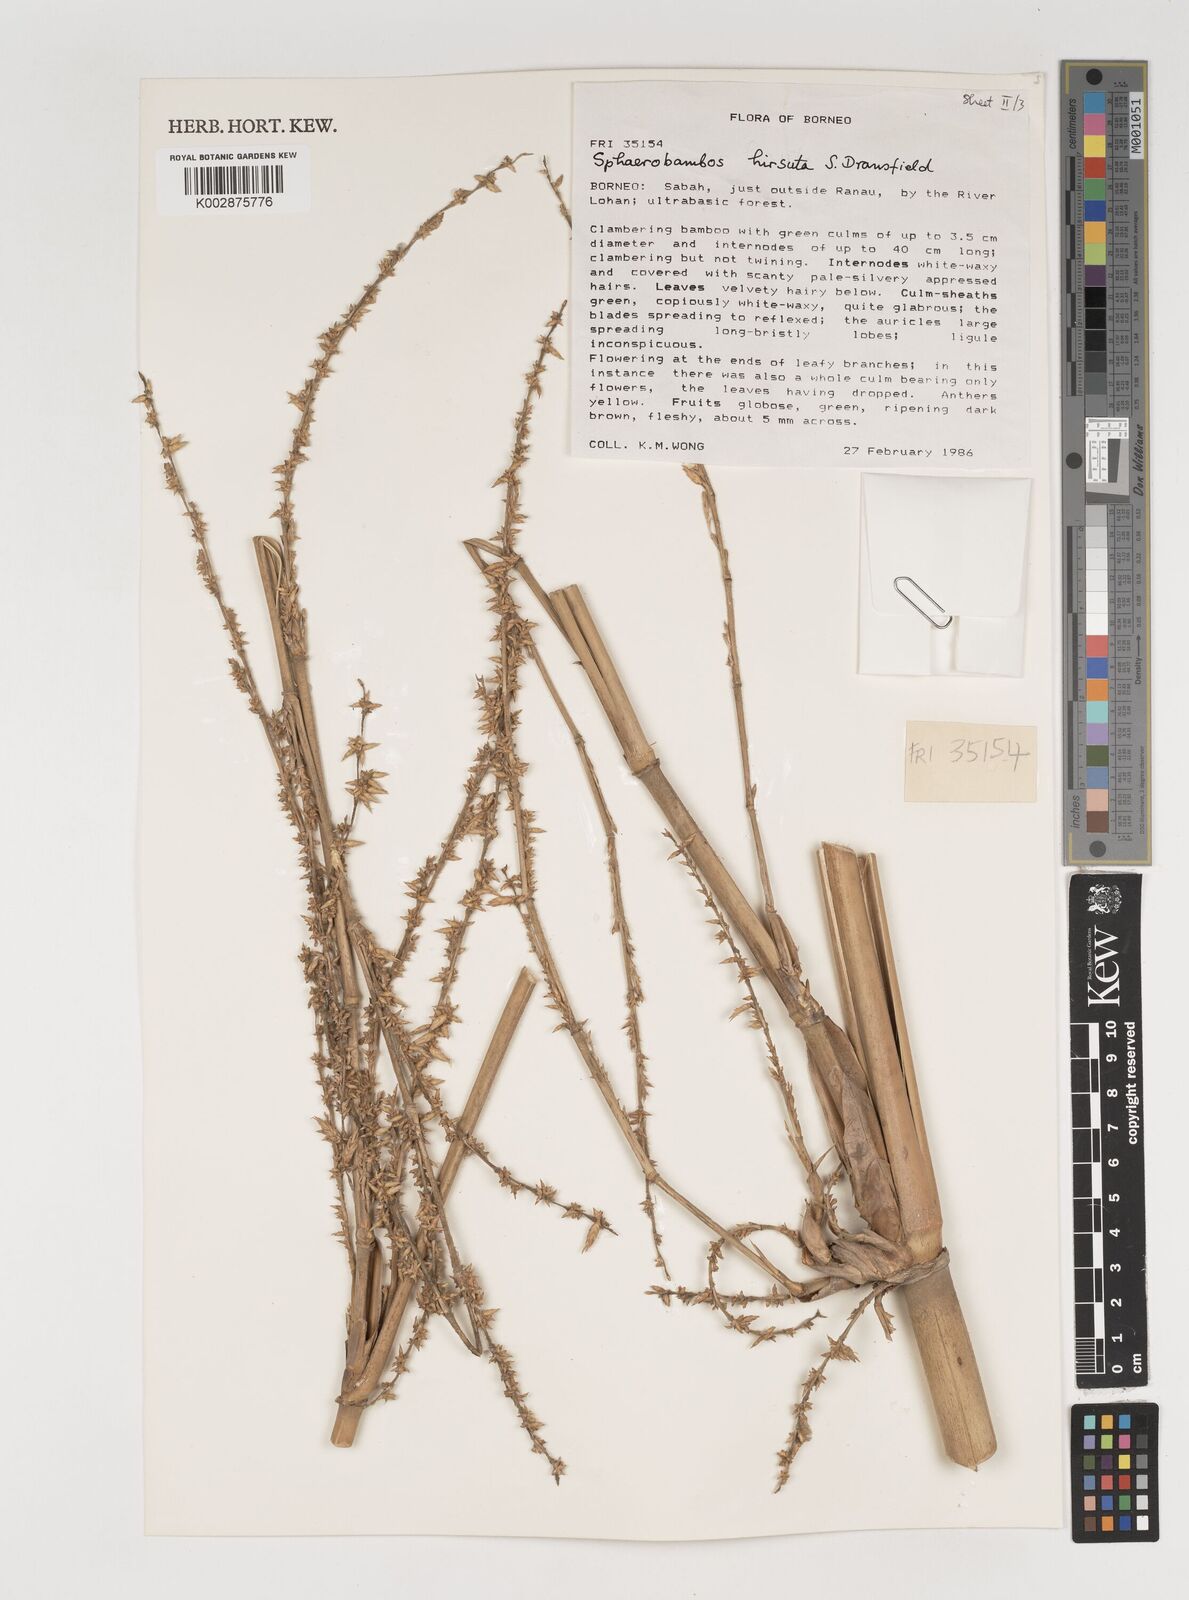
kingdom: Plantae
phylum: Tracheophyta
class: Liliopsida
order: Poales
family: Poaceae
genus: Sphaerobambos
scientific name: Sphaerobambos hirsuta
